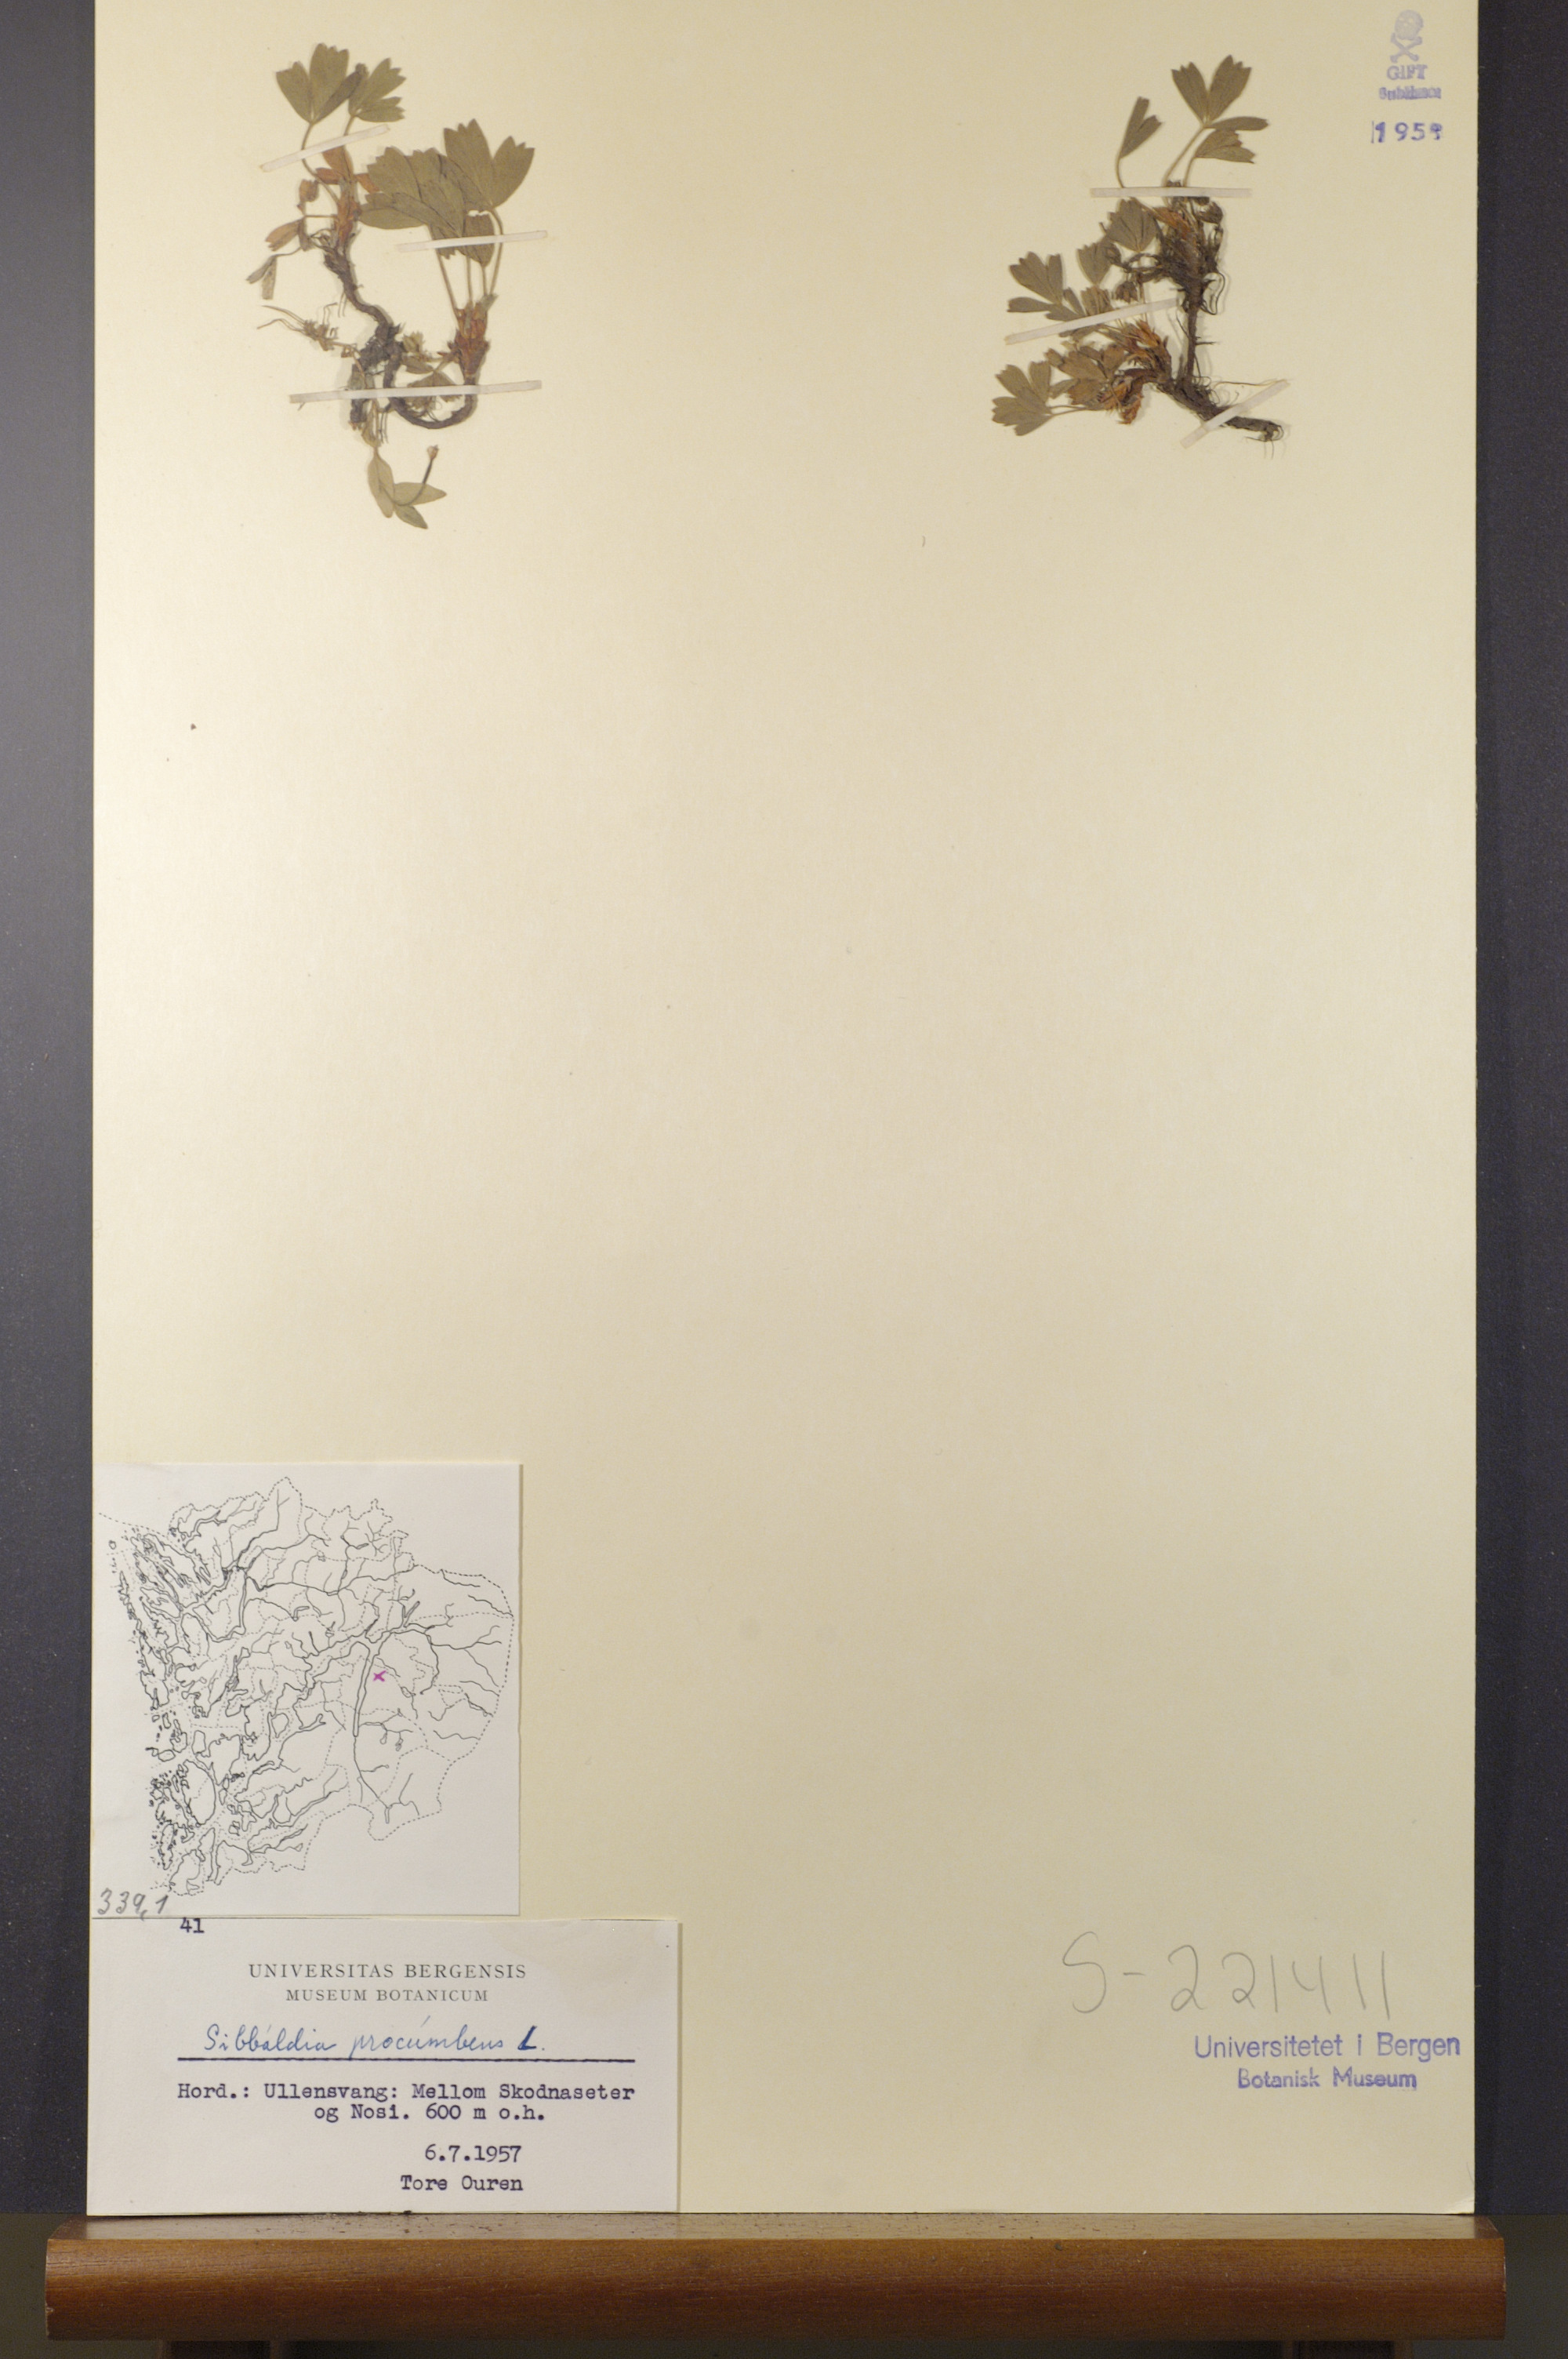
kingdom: Plantae
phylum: Tracheophyta
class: Magnoliopsida
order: Rosales
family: Rosaceae
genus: Sibbaldia
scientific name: Sibbaldia procumbens
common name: Creeping sibbaldia
